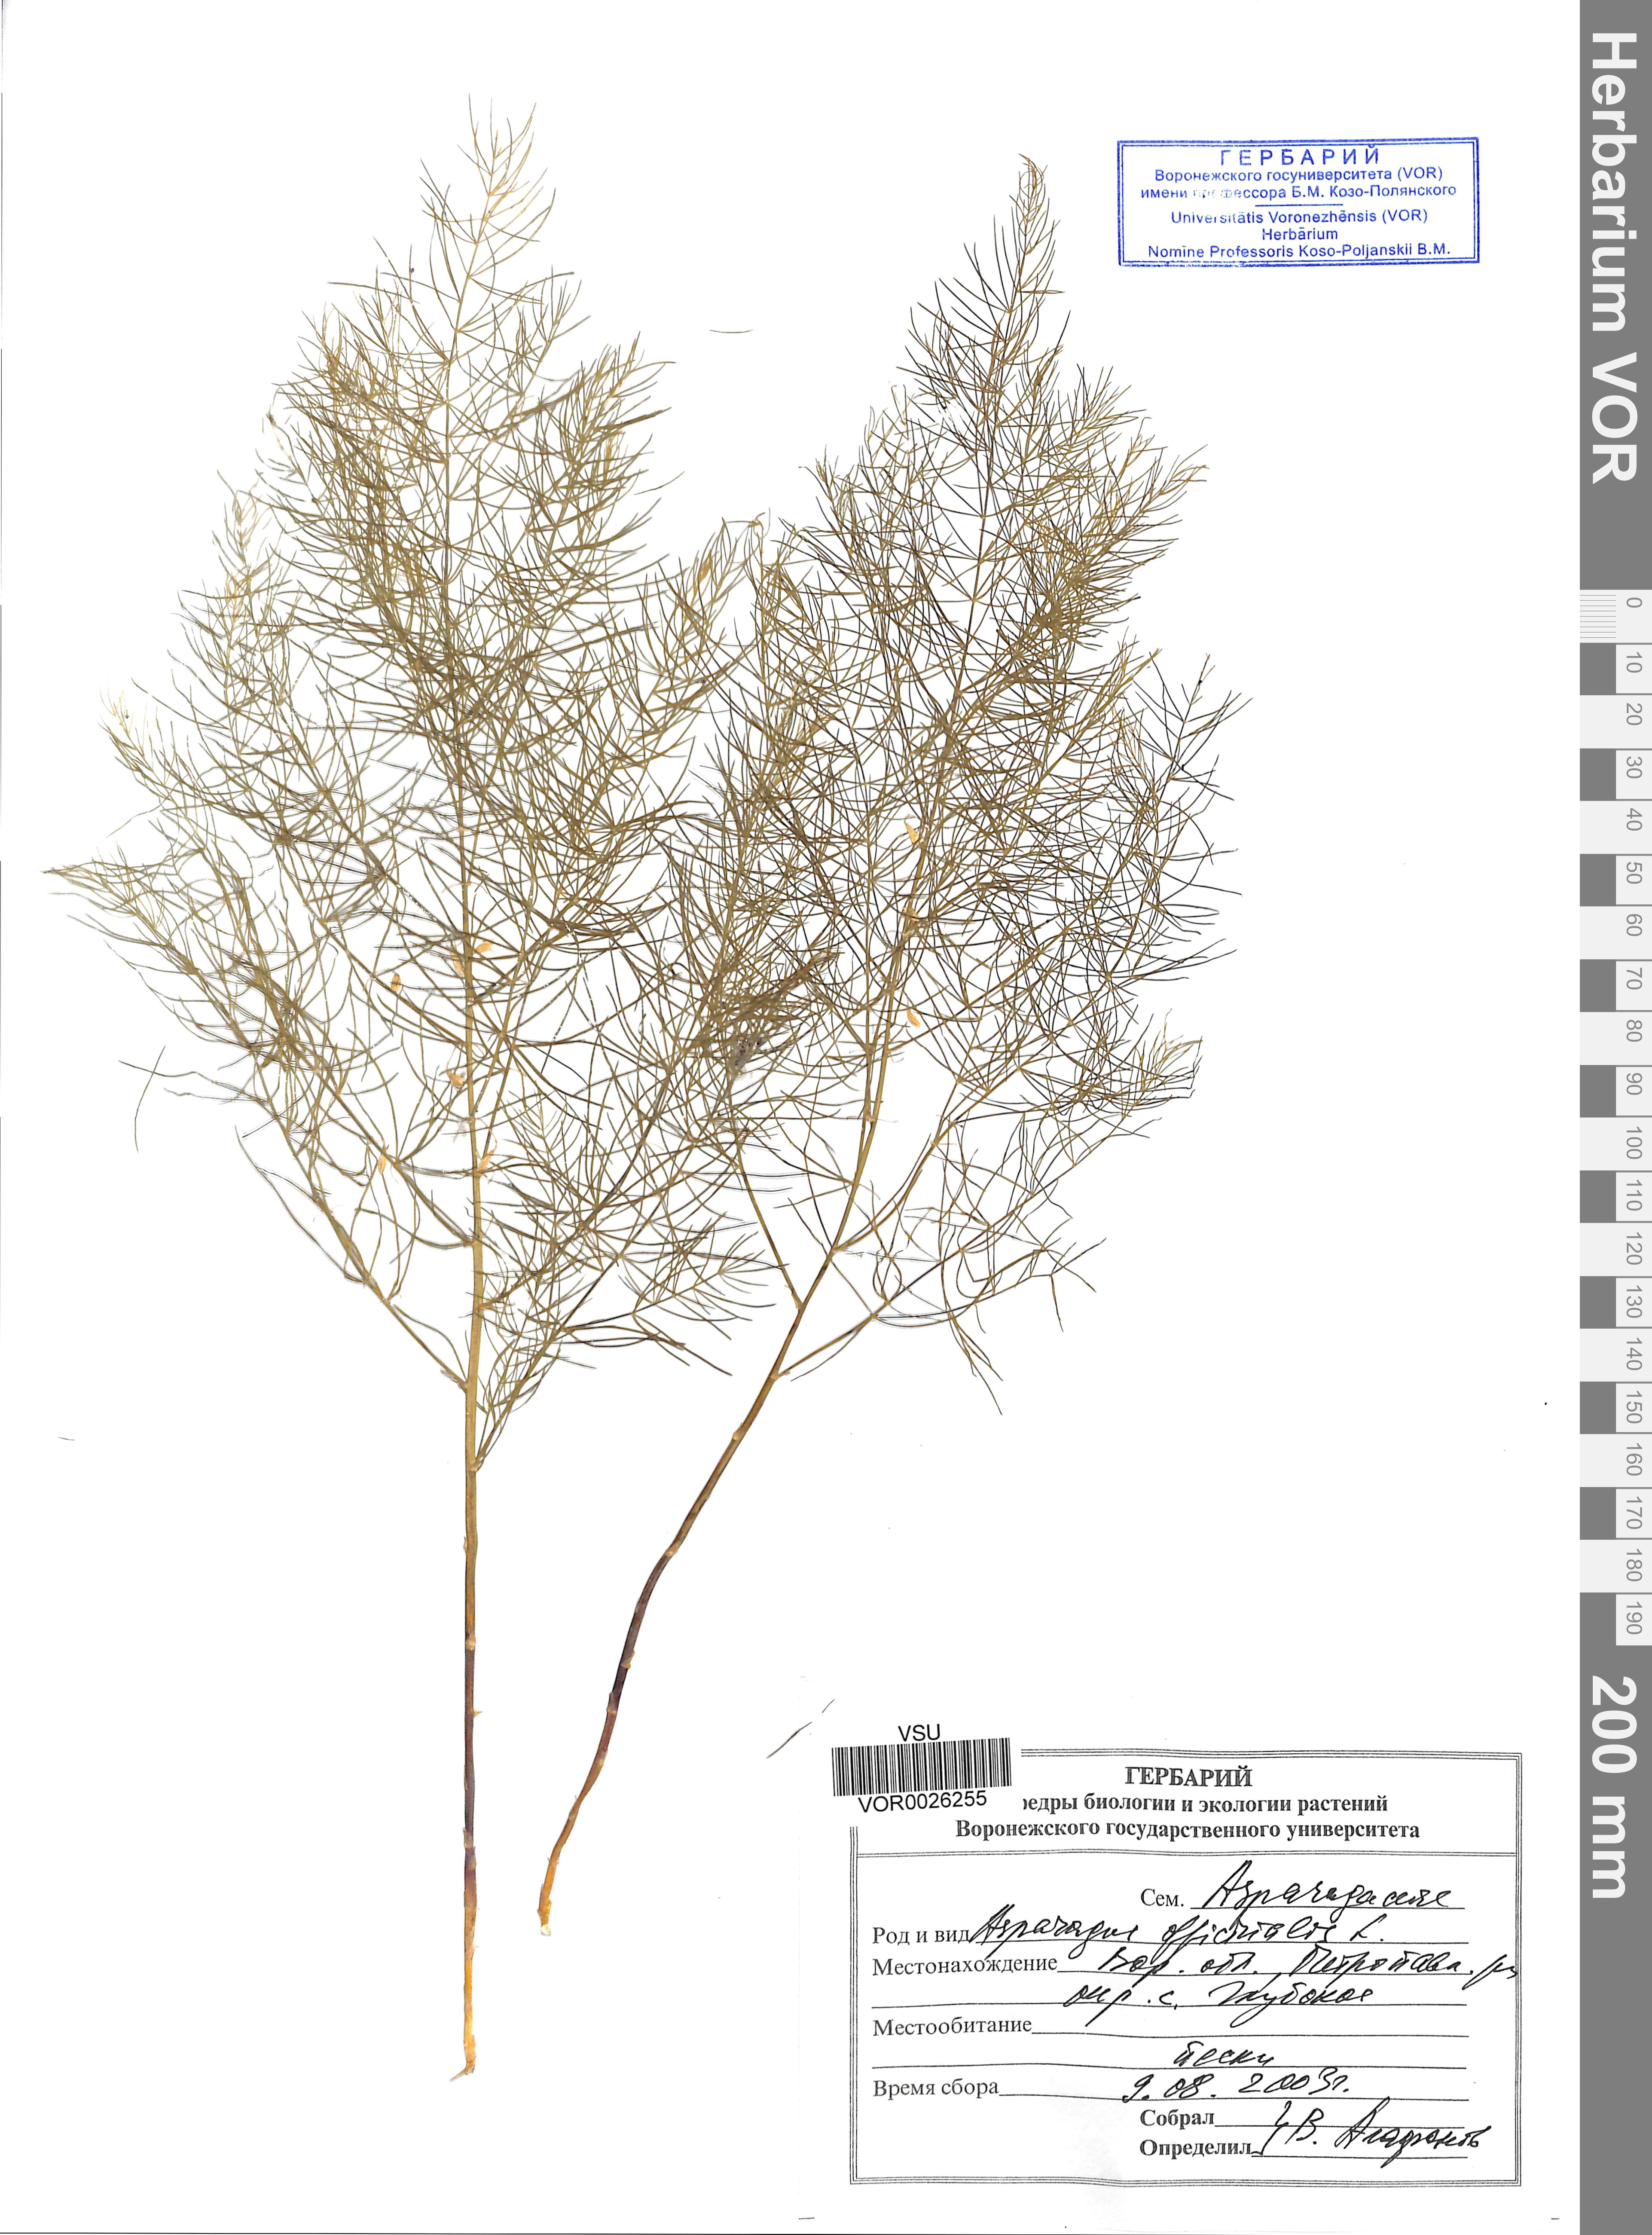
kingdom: Plantae
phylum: Tracheophyta
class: Liliopsida
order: Asparagales
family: Asparagaceae
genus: Asparagus
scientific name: Asparagus officinalis
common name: Garden asparagus
